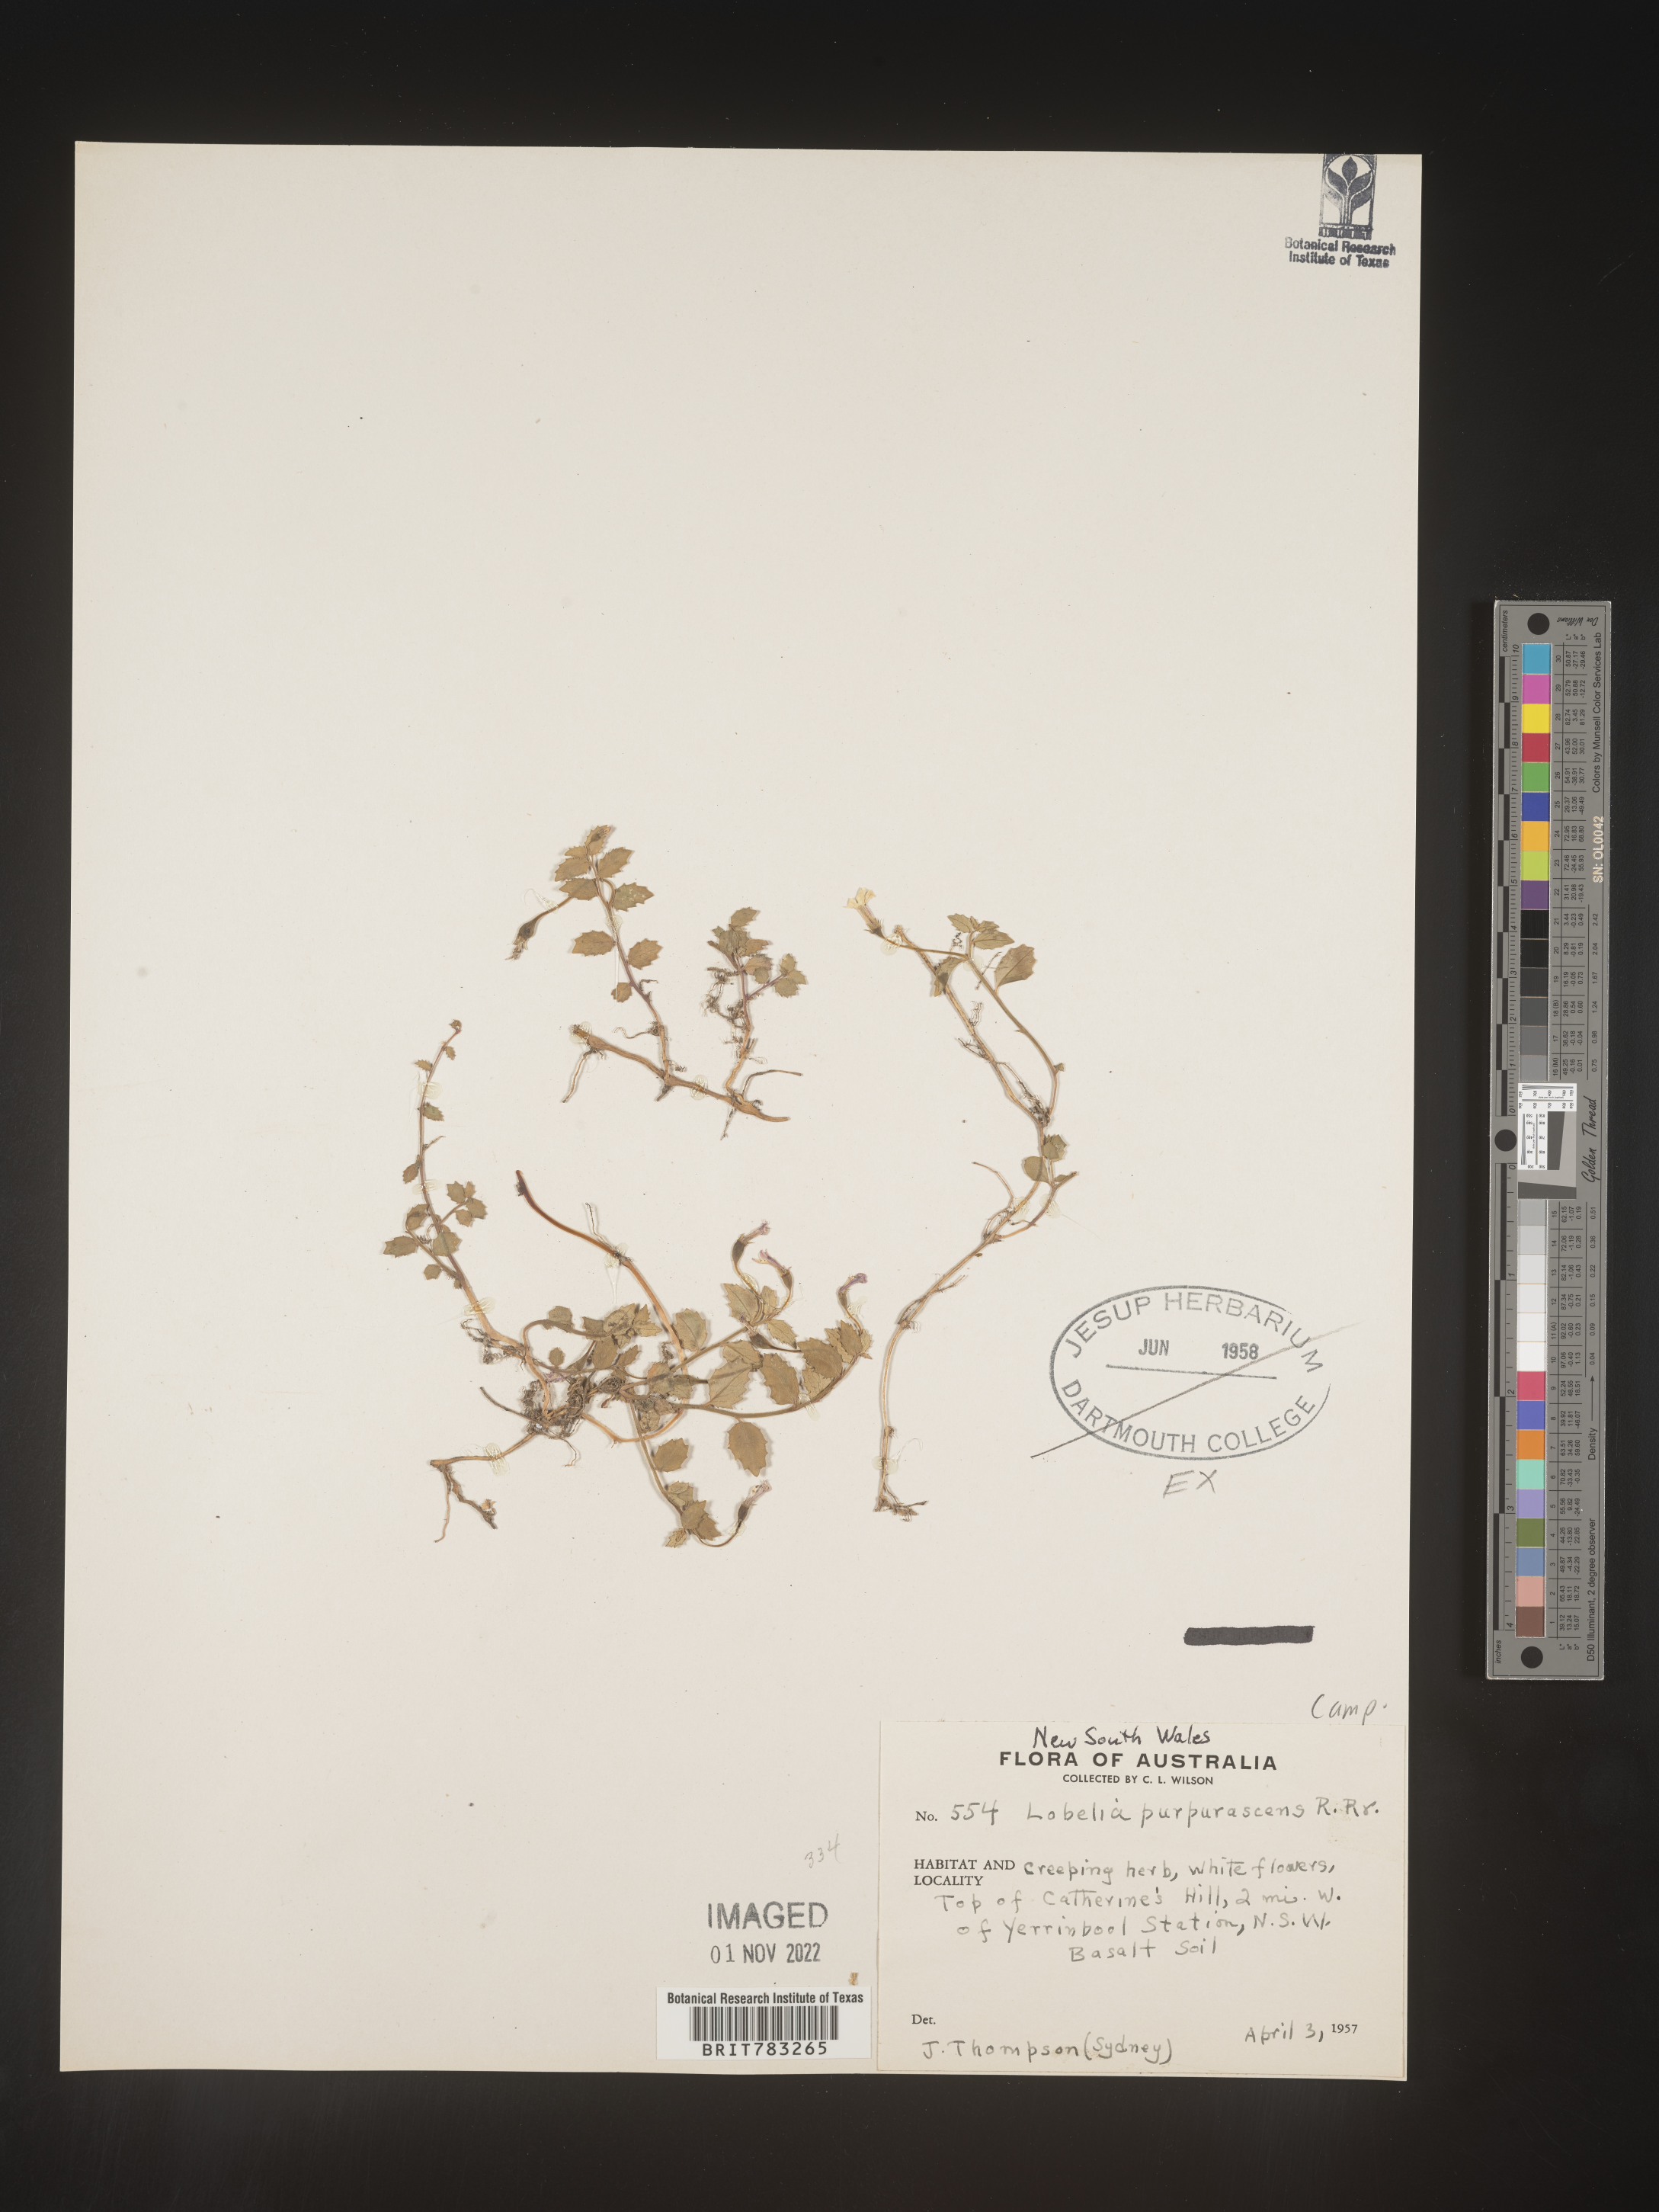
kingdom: Plantae
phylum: Tracheophyta
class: Magnoliopsida
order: Asterales
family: Campanulaceae
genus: Lobelia
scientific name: Lobelia
